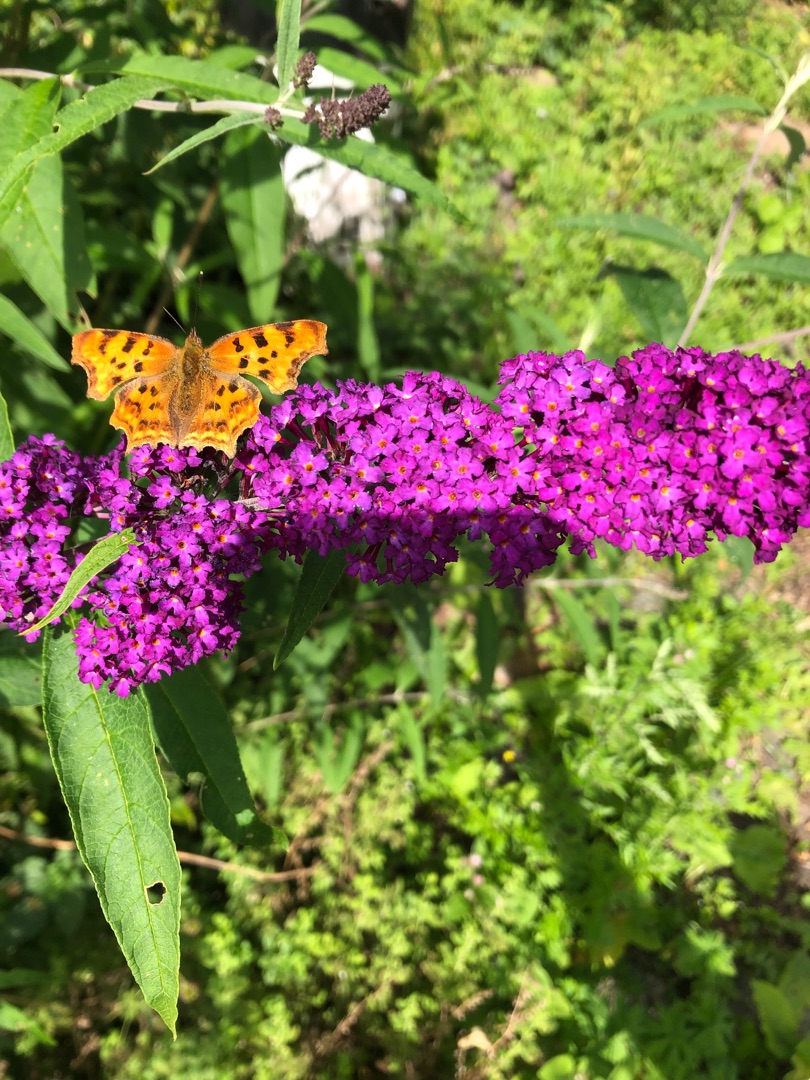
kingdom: Animalia
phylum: Arthropoda
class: Insecta
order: Lepidoptera
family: Nymphalidae
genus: Polygonia
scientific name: Polygonia c-album
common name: Det hvide C
